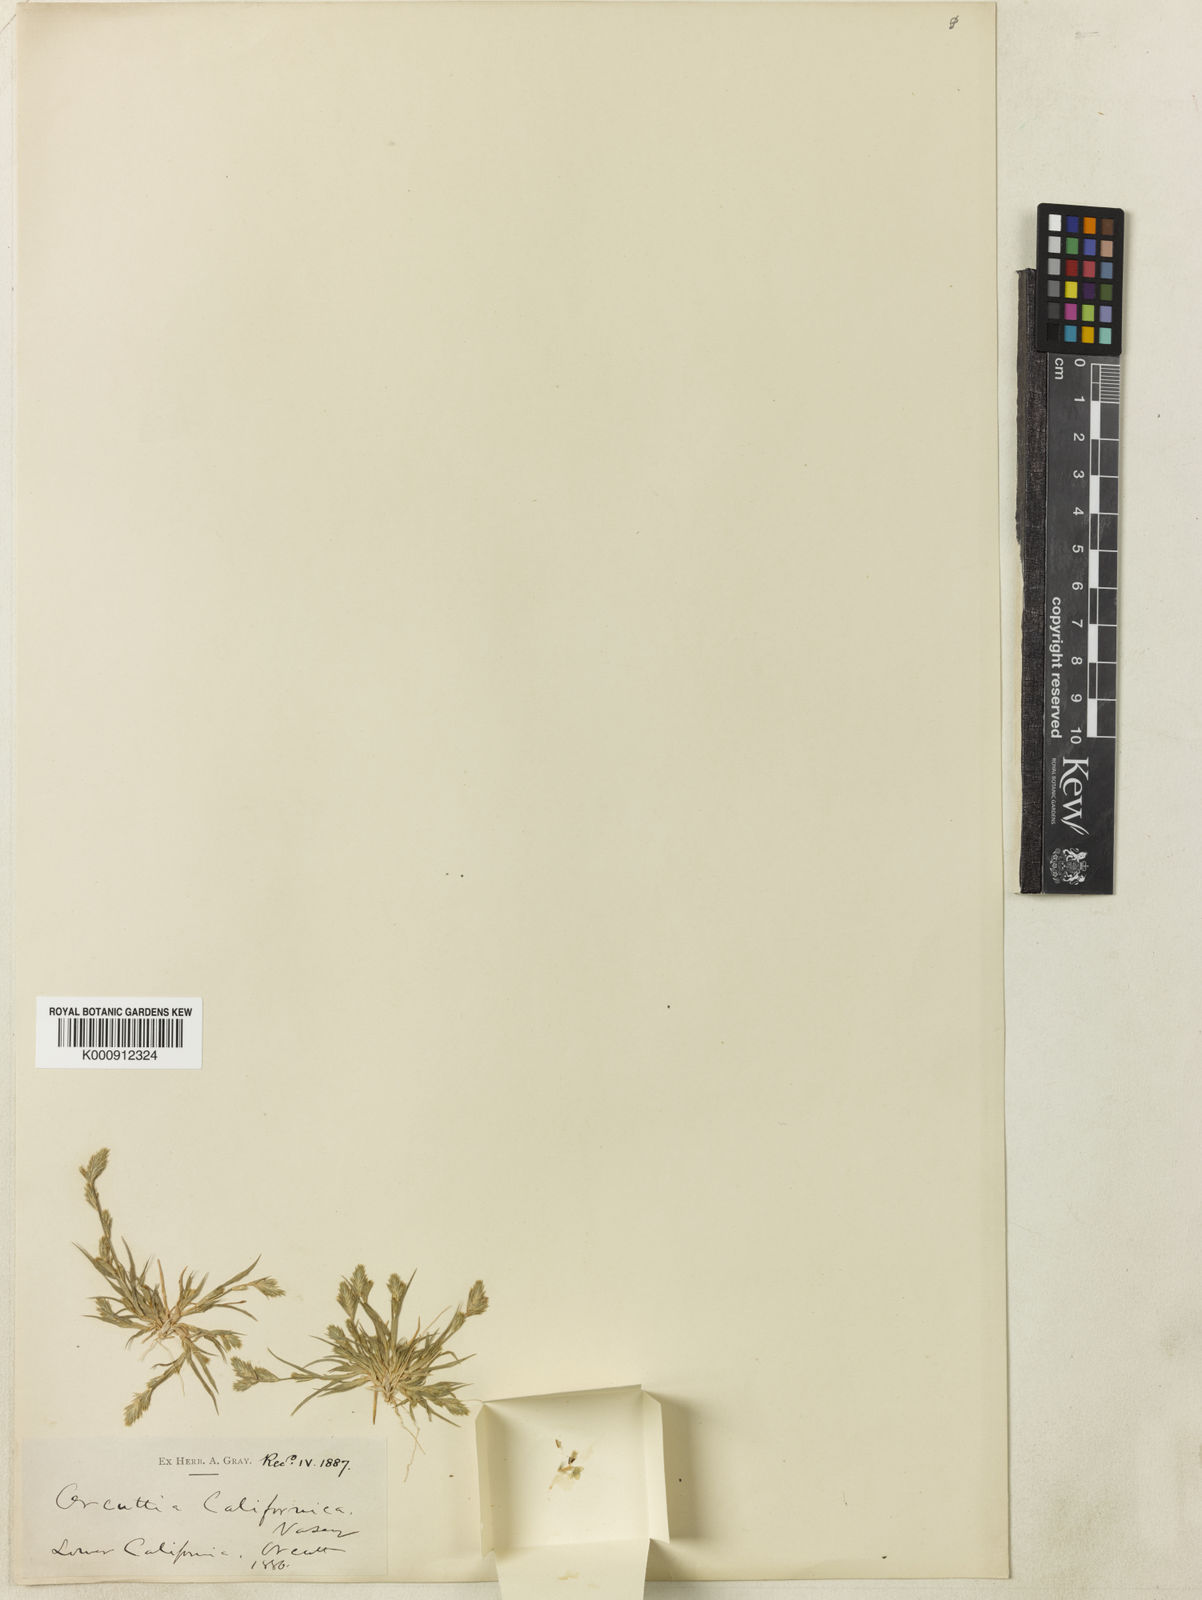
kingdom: Plantae
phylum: Tracheophyta
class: Liliopsida
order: Poales
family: Poaceae
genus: Orcuttia
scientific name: Orcuttia californica
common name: California orcutt grass
